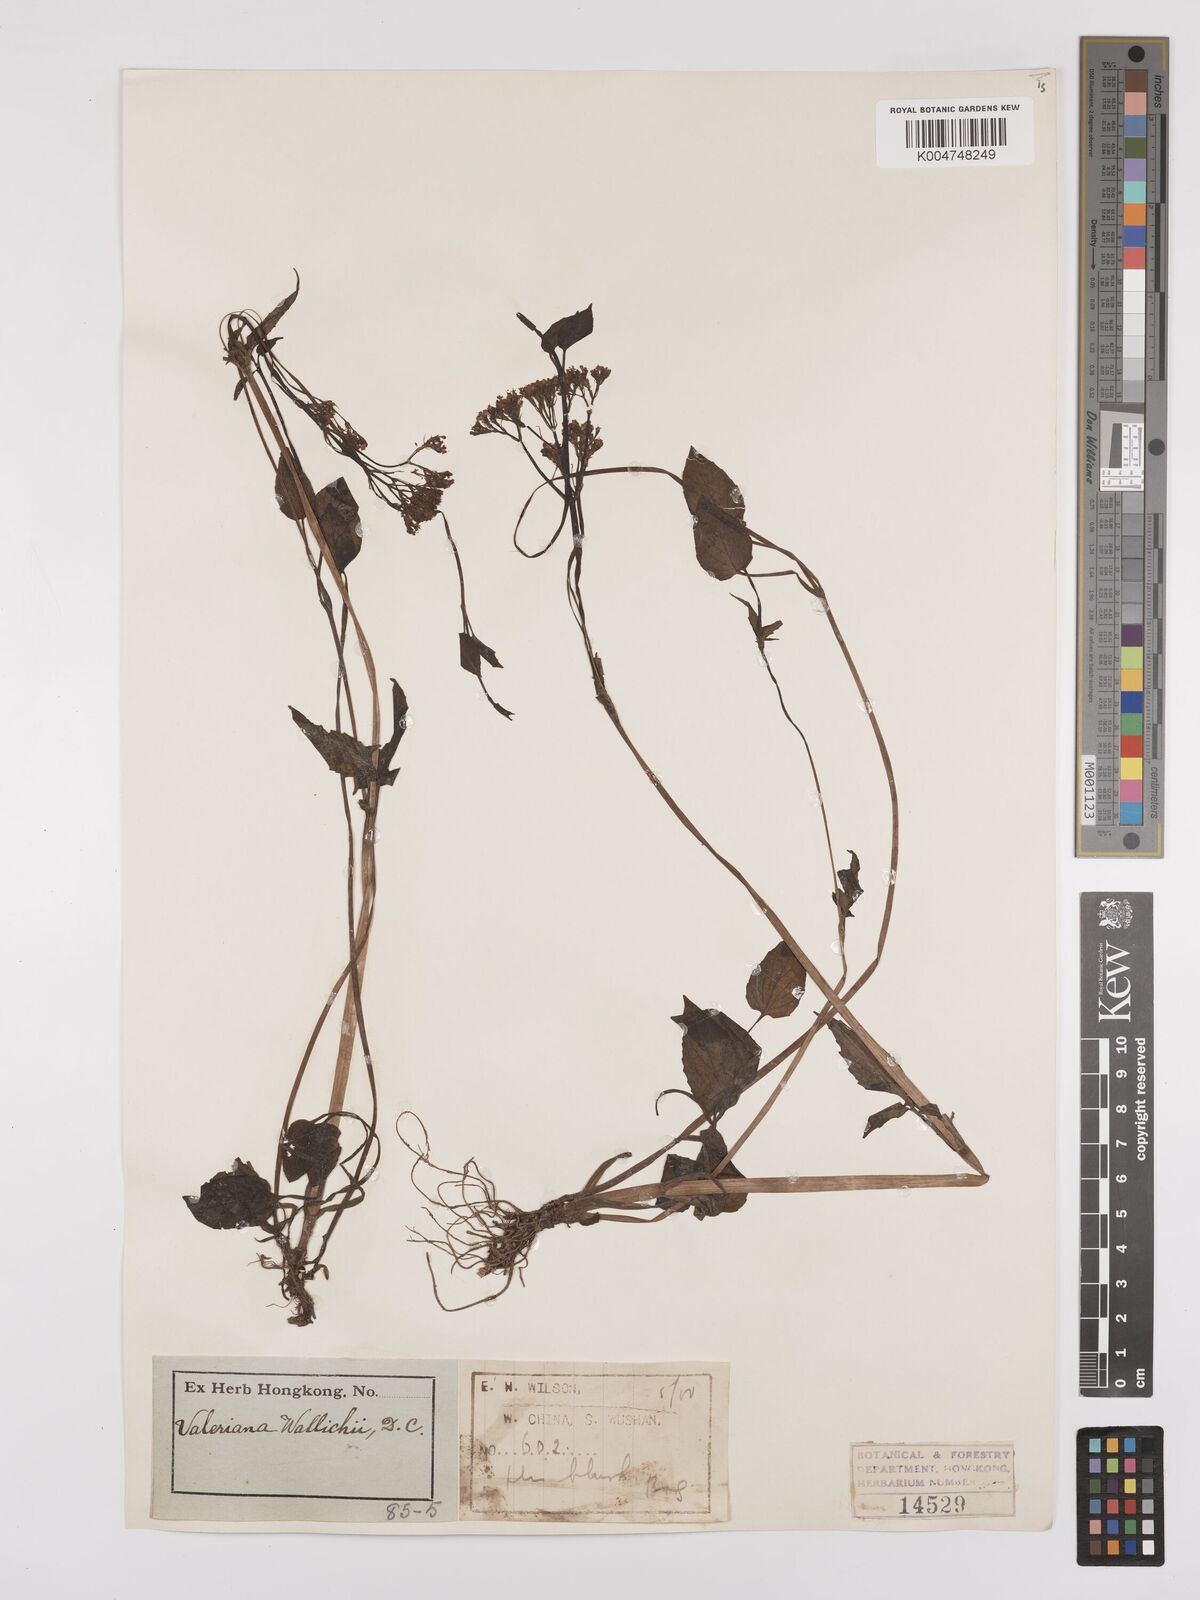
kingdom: Plantae
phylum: Tracheophyta
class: Magnoliopsida
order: Dipsacales
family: Caprifoliaceae
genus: Valeriana
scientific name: Valeriana
